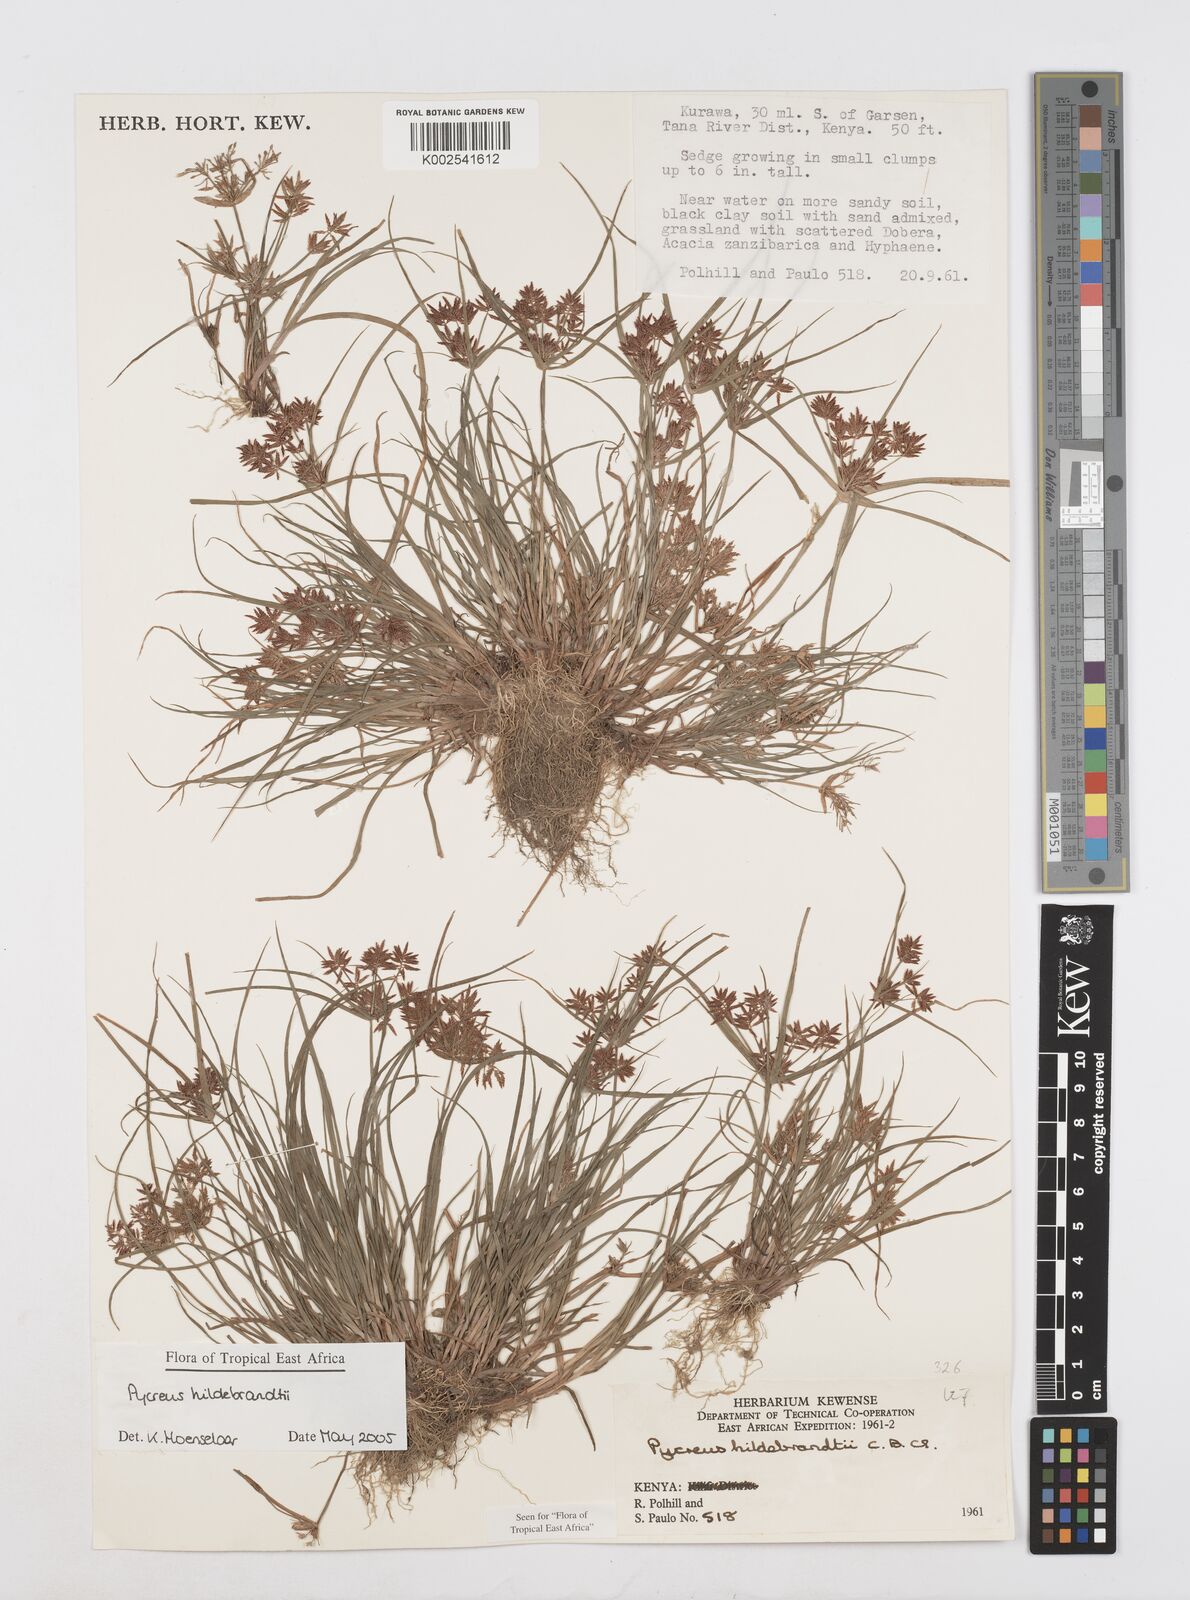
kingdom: Plantae
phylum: Tracheophyta
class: Liliopsida
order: Poales
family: Cyperaceae
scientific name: Cyperaceae
